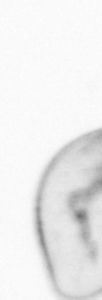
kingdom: Chromista
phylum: Myzozoa
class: Dinophyceae
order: Noctilucales
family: Noctilucaceae
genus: Noctiluca
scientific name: Noctiluca scintillans
